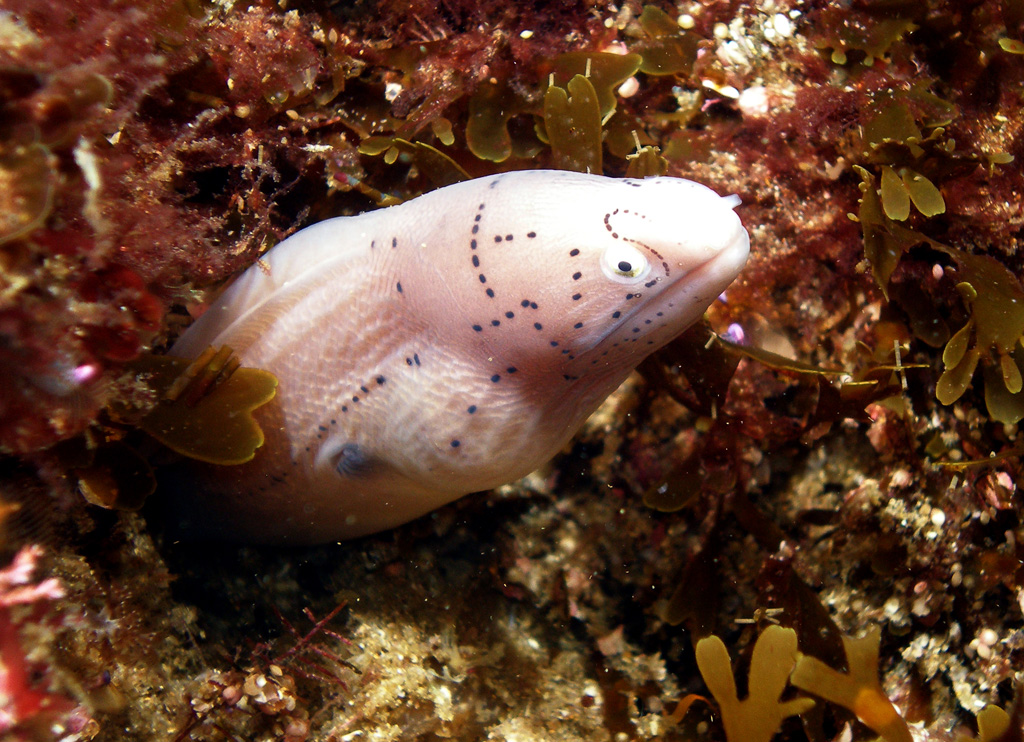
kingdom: Animalia
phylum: Chordata
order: Anguilliformes
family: Muraenidae
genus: Gymnothorax
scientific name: Gymnothorax griseus
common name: Geometric moray
